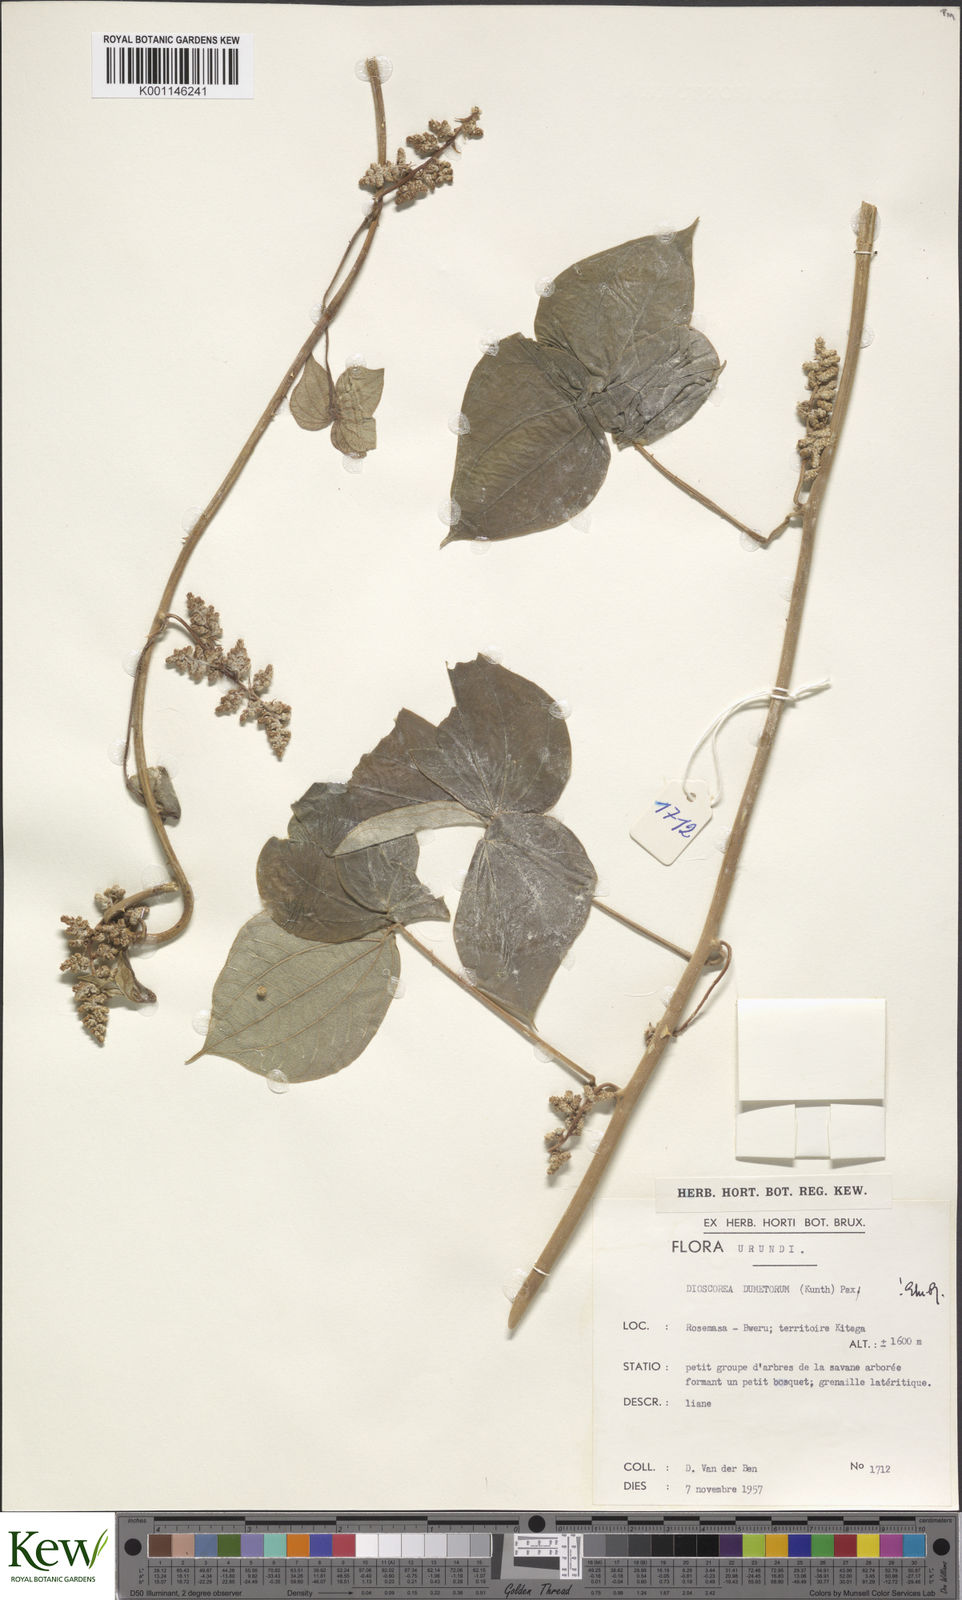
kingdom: Plantae
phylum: Tracheophyta
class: Liliopsida
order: Dioscoreales
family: Dioscoreaceae
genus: Dioscorea
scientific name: Dioscorea dumetorum
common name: African bitter yam
